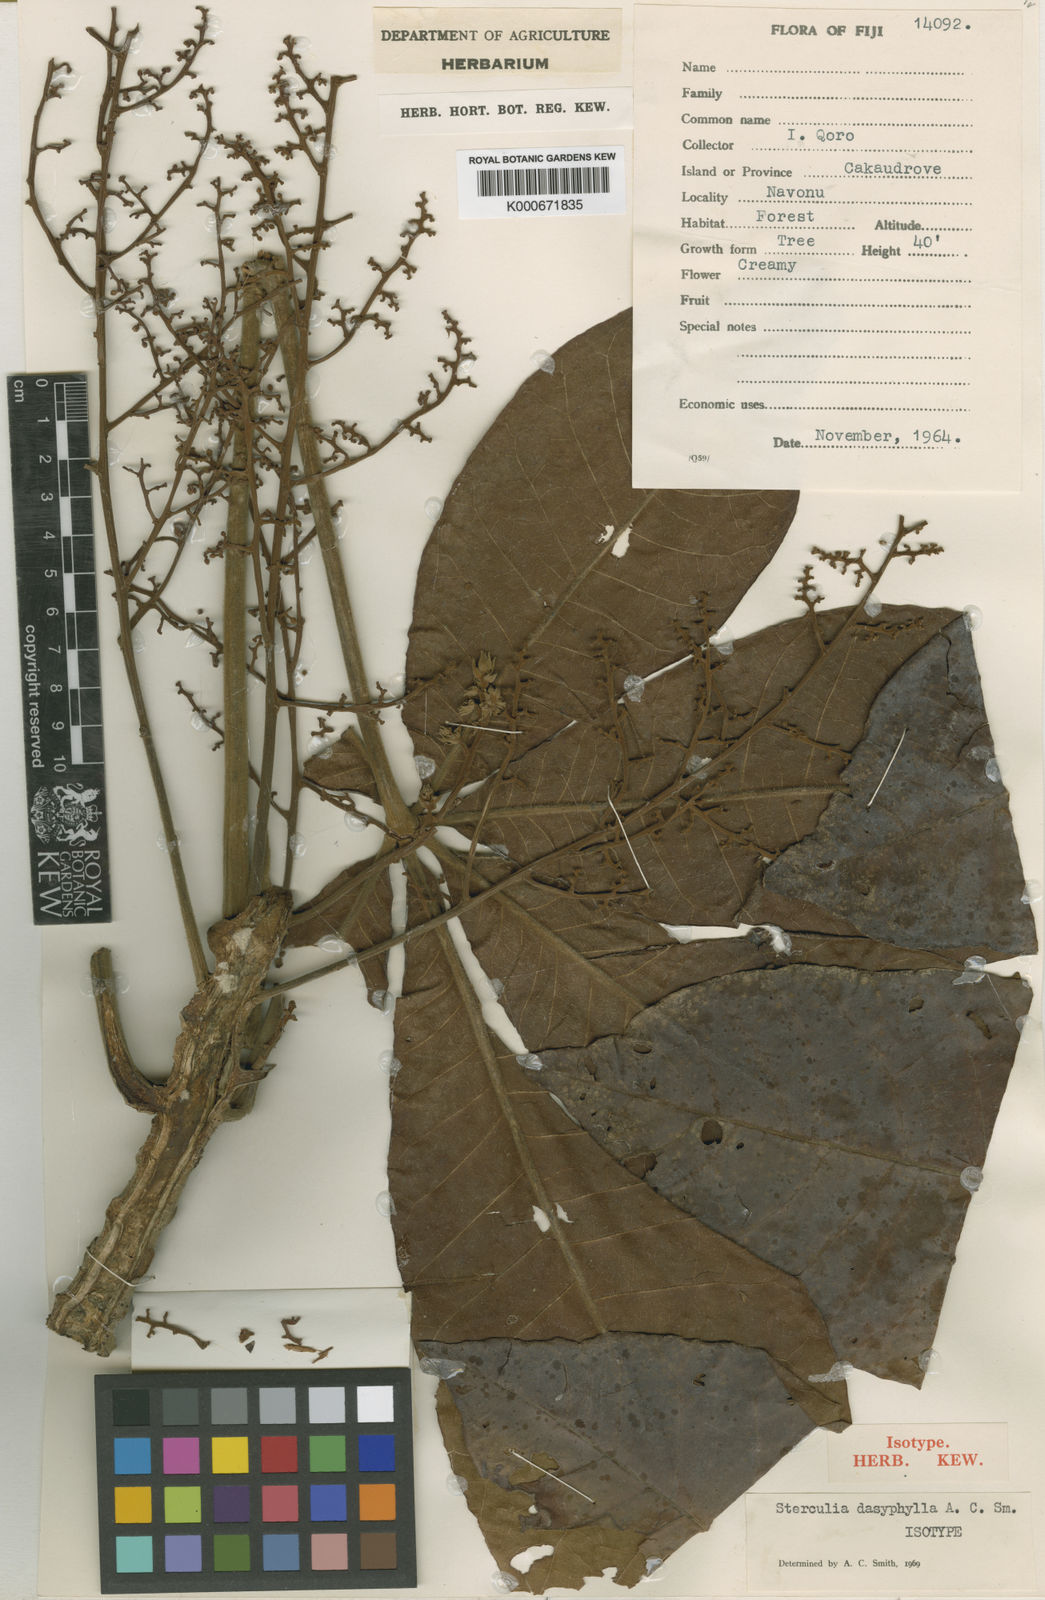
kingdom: Plantae
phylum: Tracheophyta
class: Magnoliopsida
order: Malvales
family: Malvaceae
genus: Sterculia
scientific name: Sterculia dasyphylla
